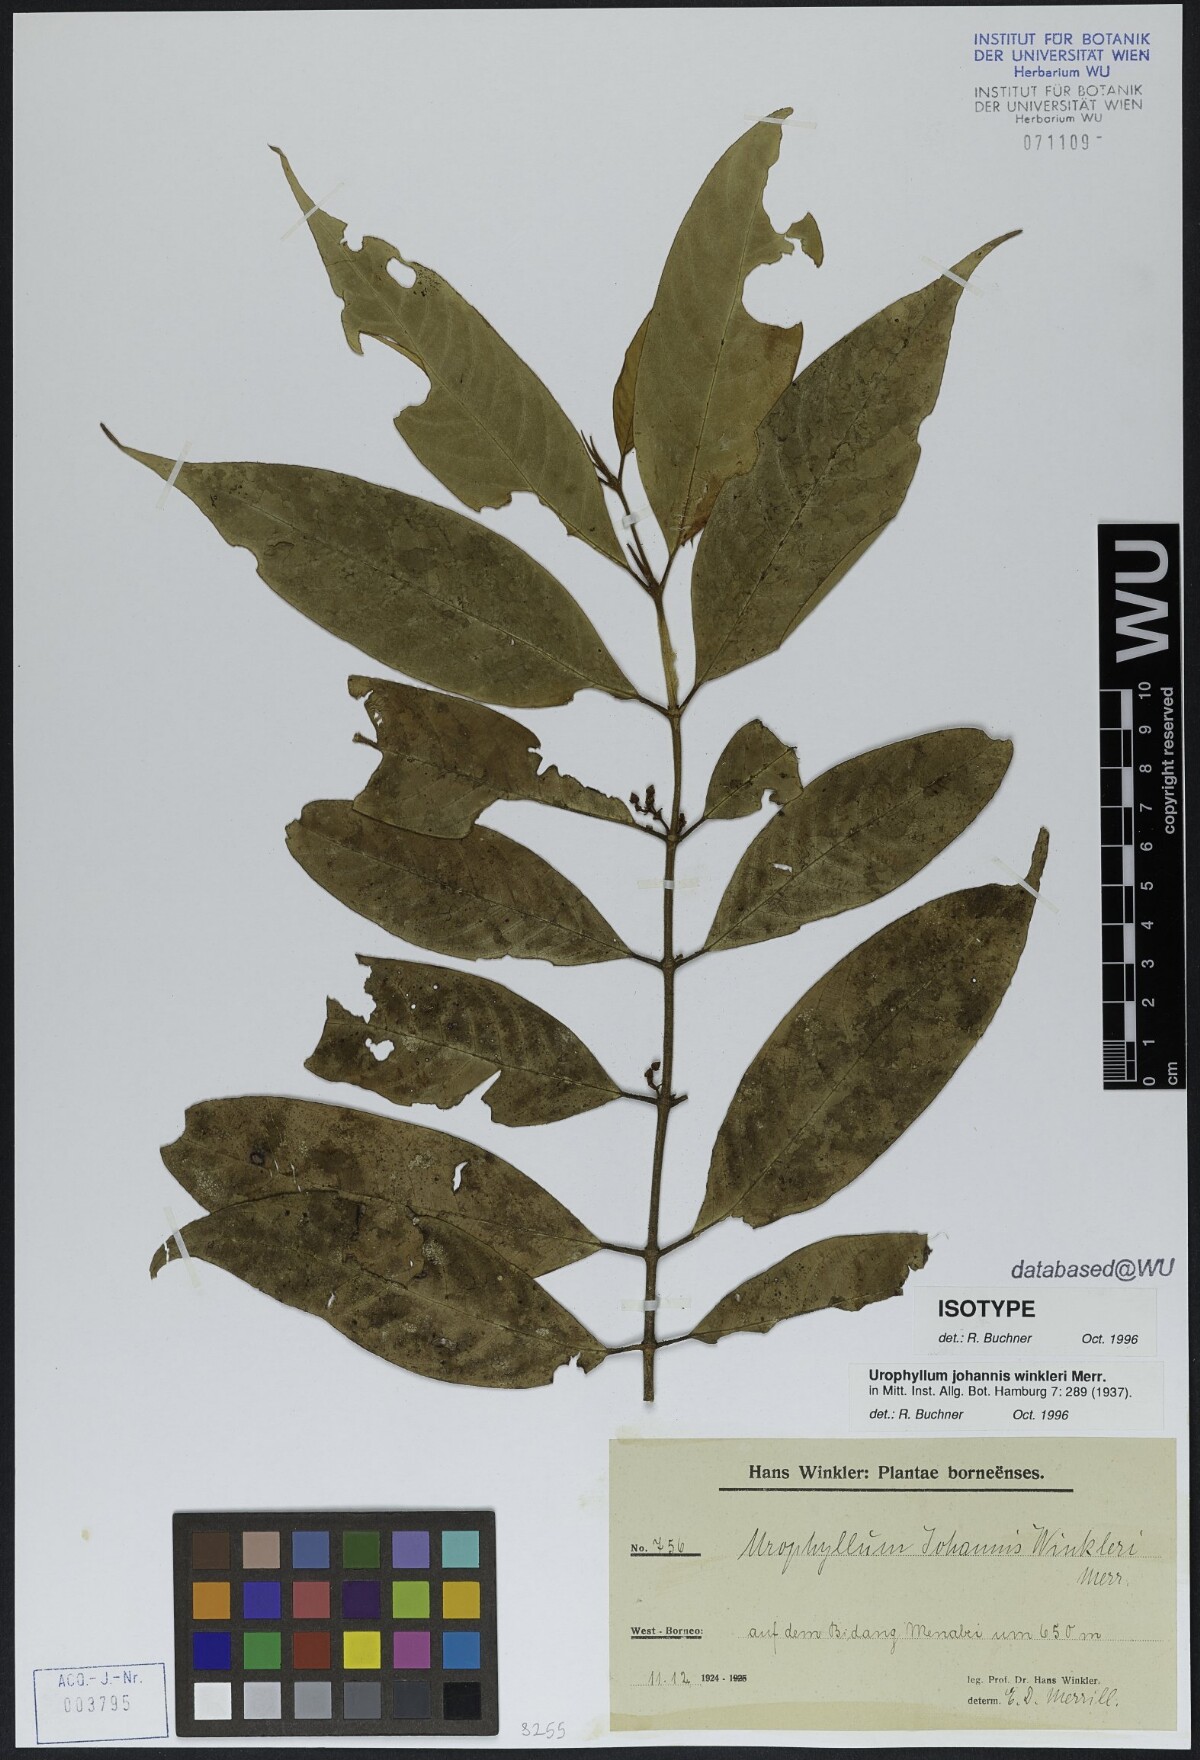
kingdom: Plantae
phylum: Tracheophyta
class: Magnoliopsida
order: Gentianales
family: Rubiaceae
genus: Urophyllum
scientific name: Urophyllum johannis-winkleri
